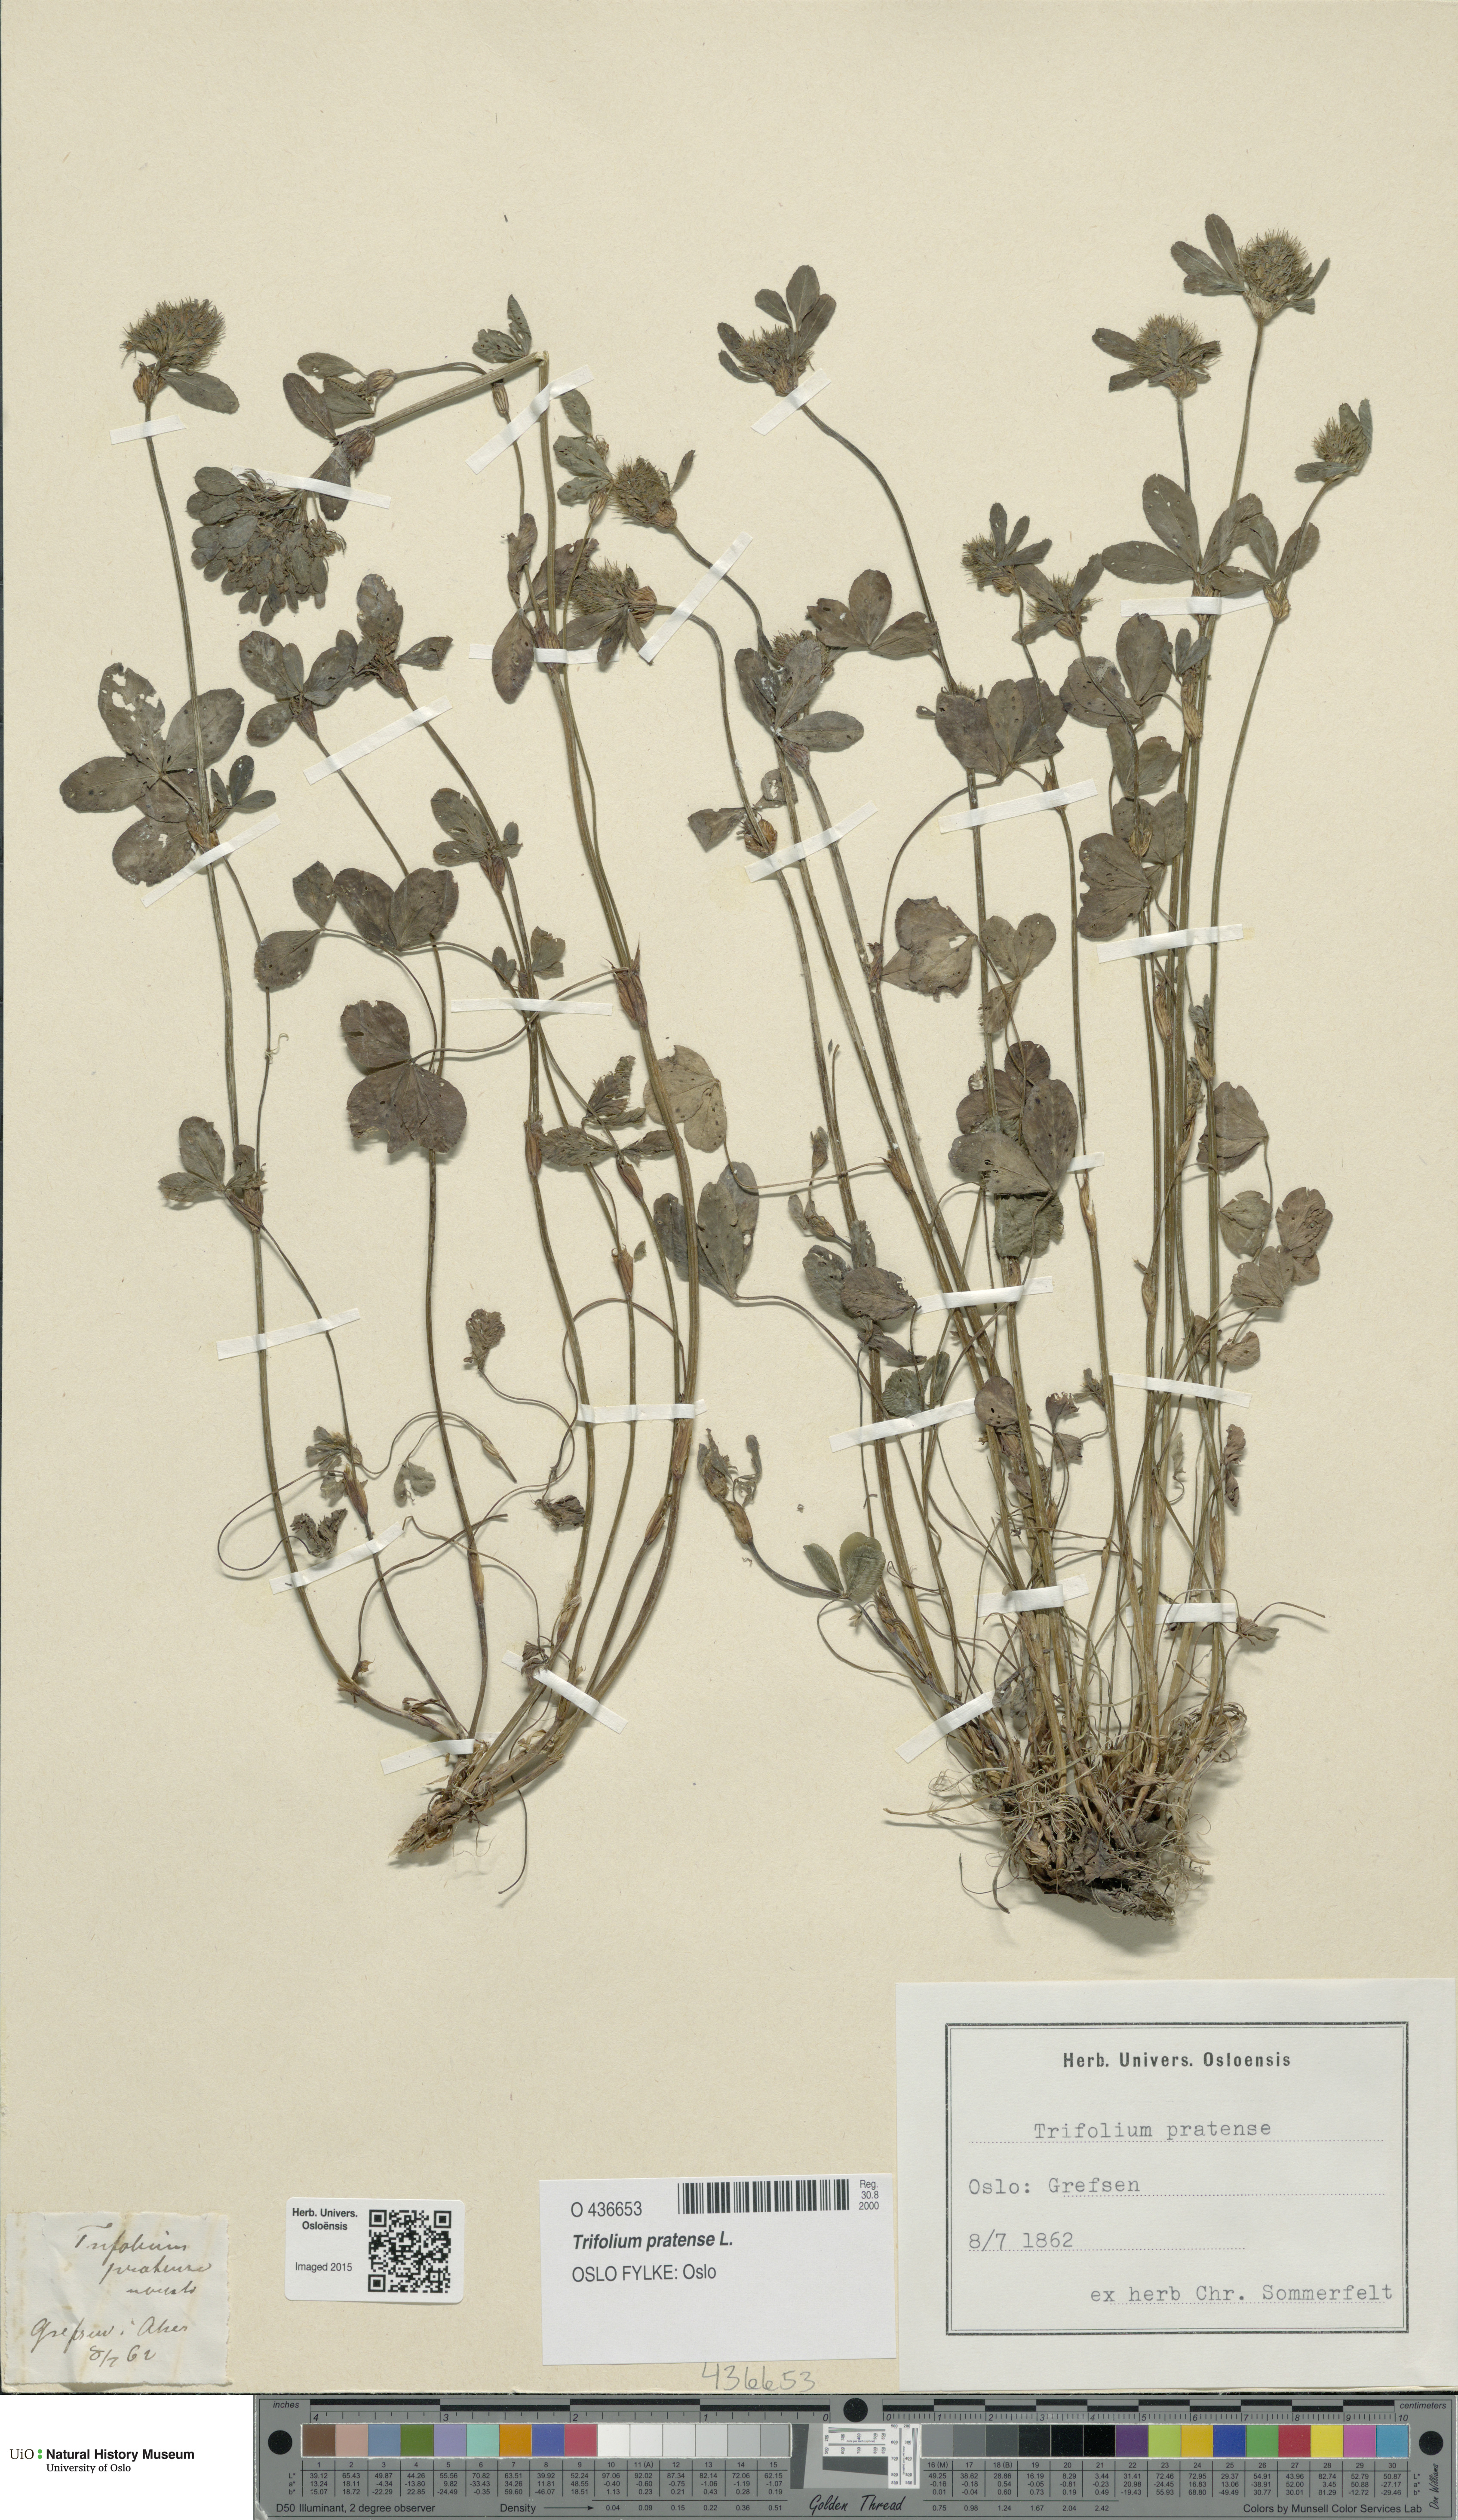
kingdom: Plantae
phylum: Tracheophyta
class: Magnoliopsida
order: Fabales
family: Fabaceae
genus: Trifolium
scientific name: Trifolium pratense
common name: Red clover
